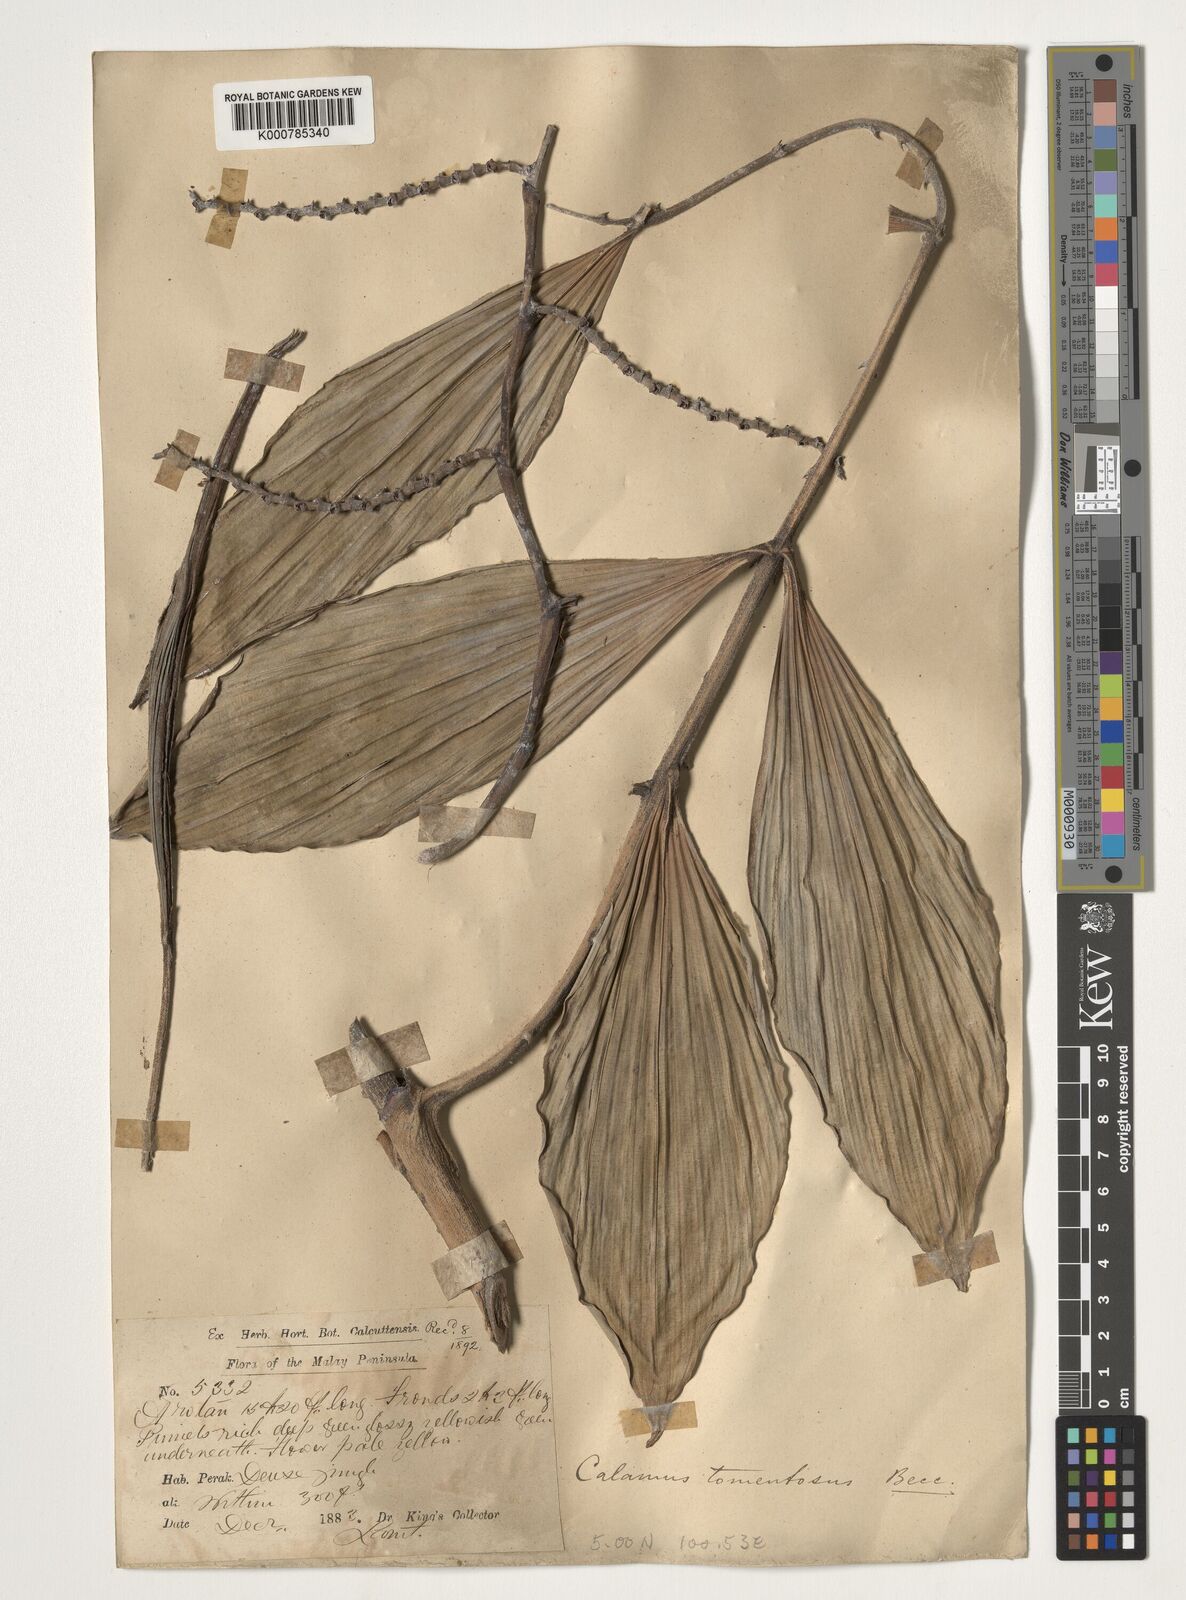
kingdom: Plantae
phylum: Tracheophyta
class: Liliopsida
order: Arecales
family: Arecaceae
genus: Calamus
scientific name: Calamus rhomboideus
